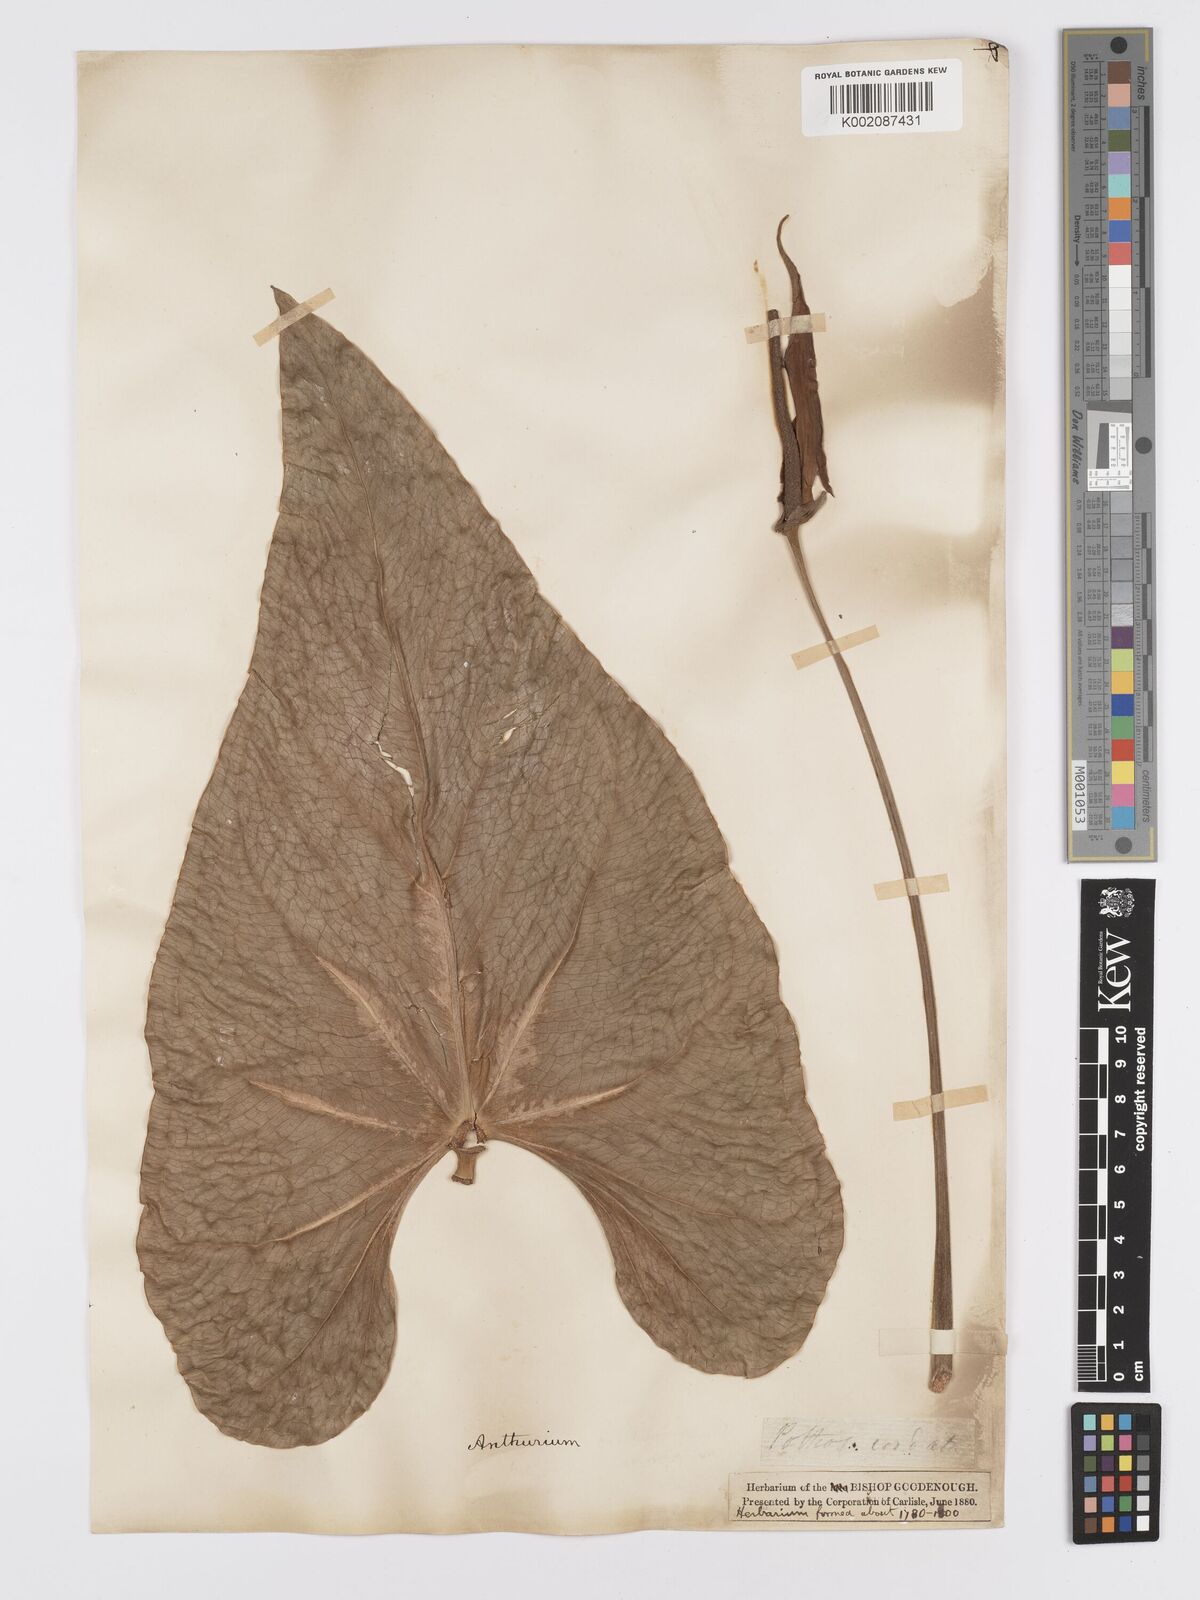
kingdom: Plantae
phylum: Tracheophyta
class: Liliopsida
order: Alismatales
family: Araceae
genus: Anthurium
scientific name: Anthurium
